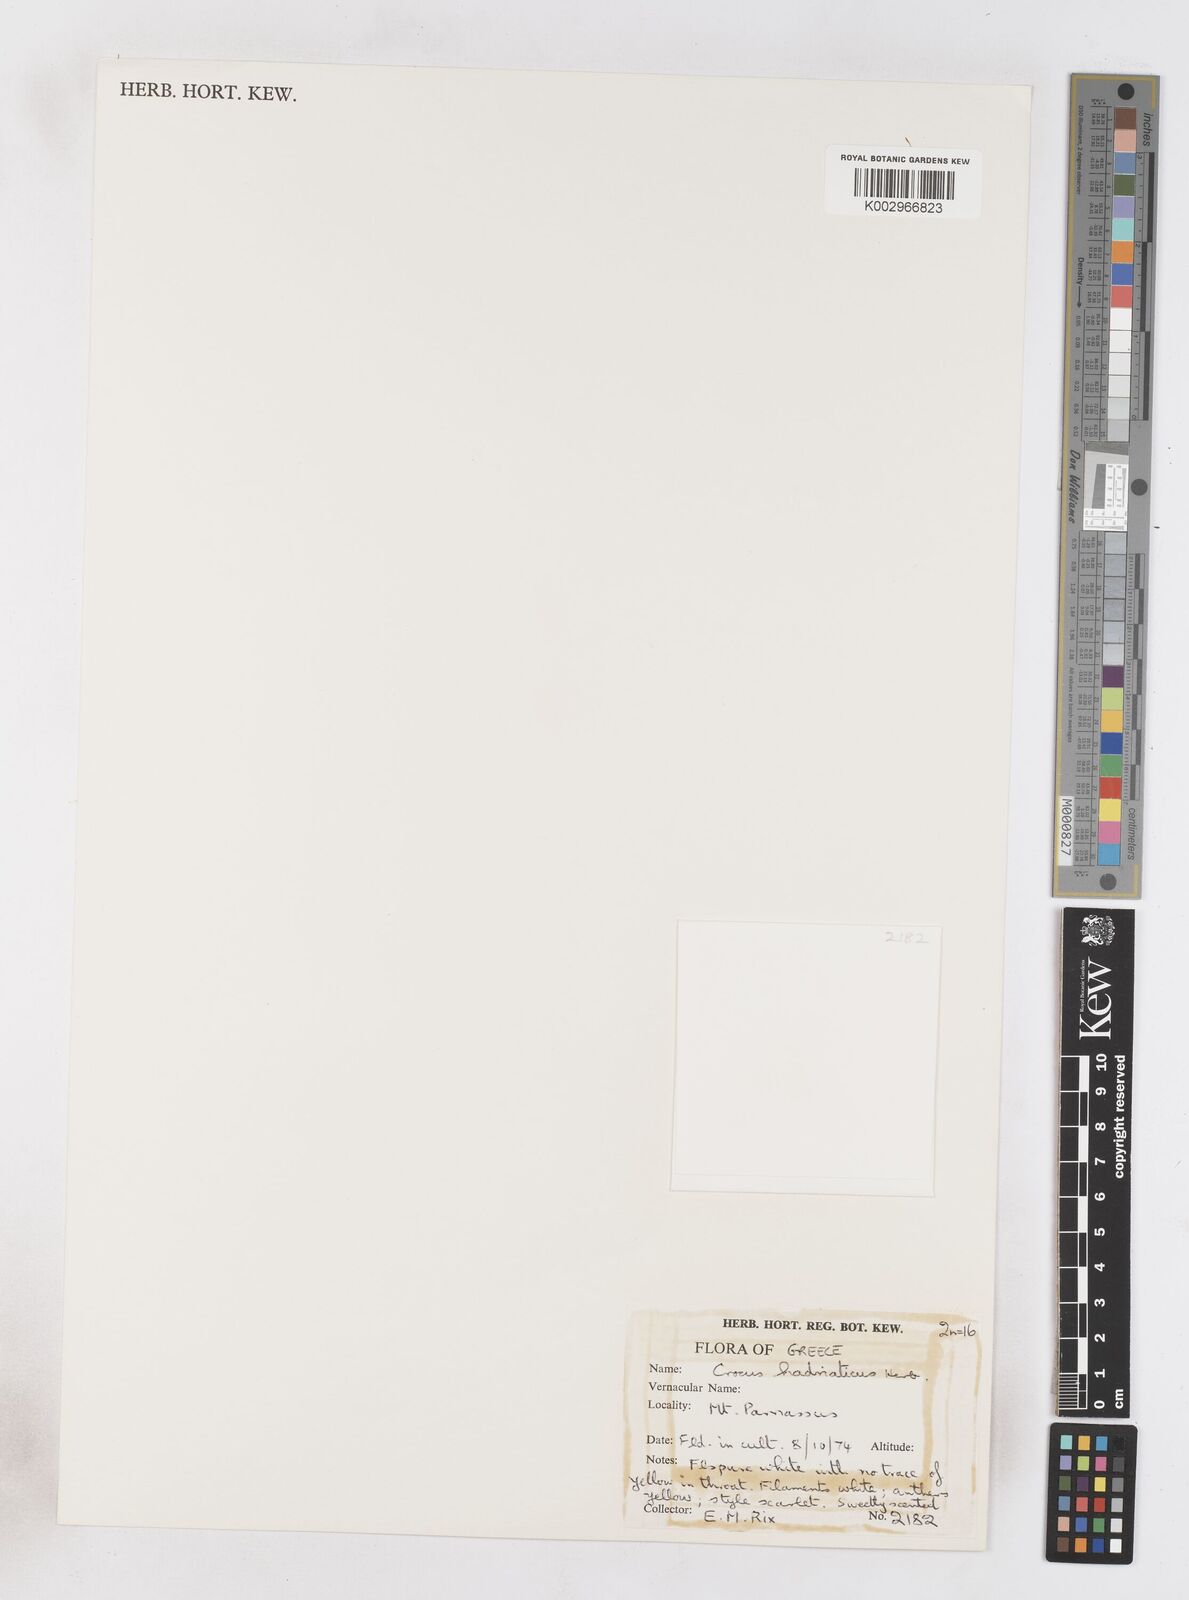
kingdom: Plantae
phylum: Tracheophyta
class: Liliopsida
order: Asparagales
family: Iridaceae
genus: Crocus
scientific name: Crocus hadriaticus
